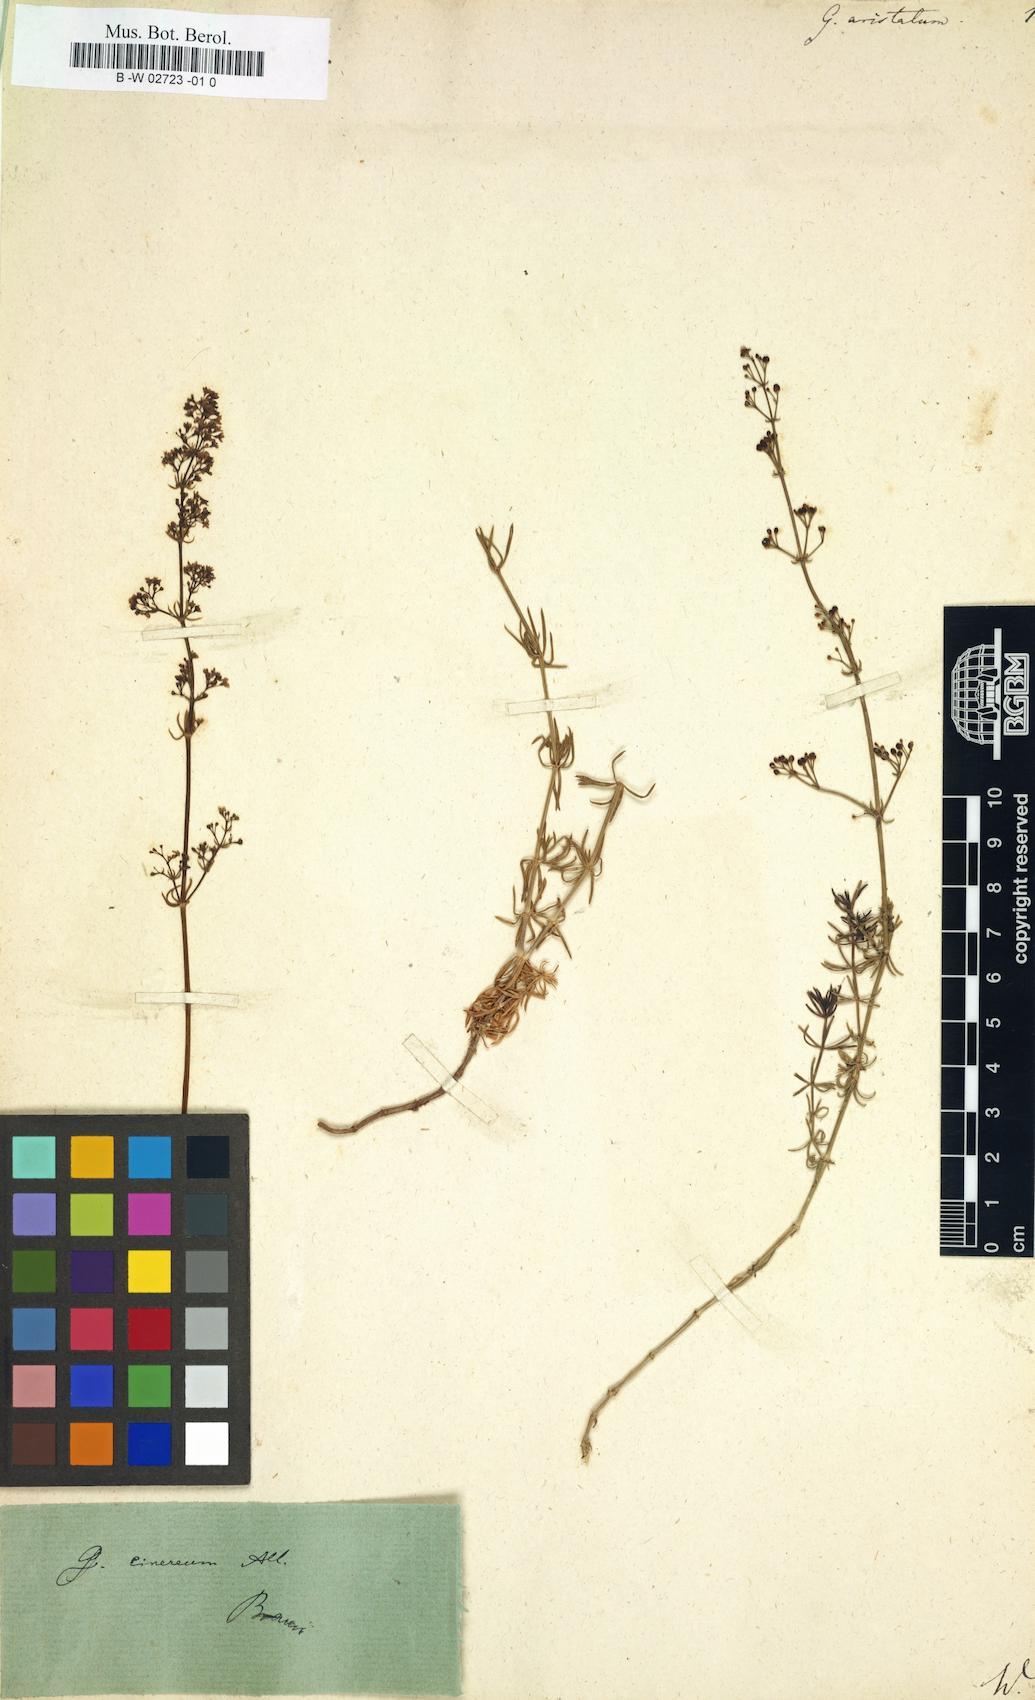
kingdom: Plantae
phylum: Tracheophyta
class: Magnoliopsida
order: Gentianales
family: Rubiaceae
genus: Galium
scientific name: Galium aristatum
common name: Awned bedstraw
